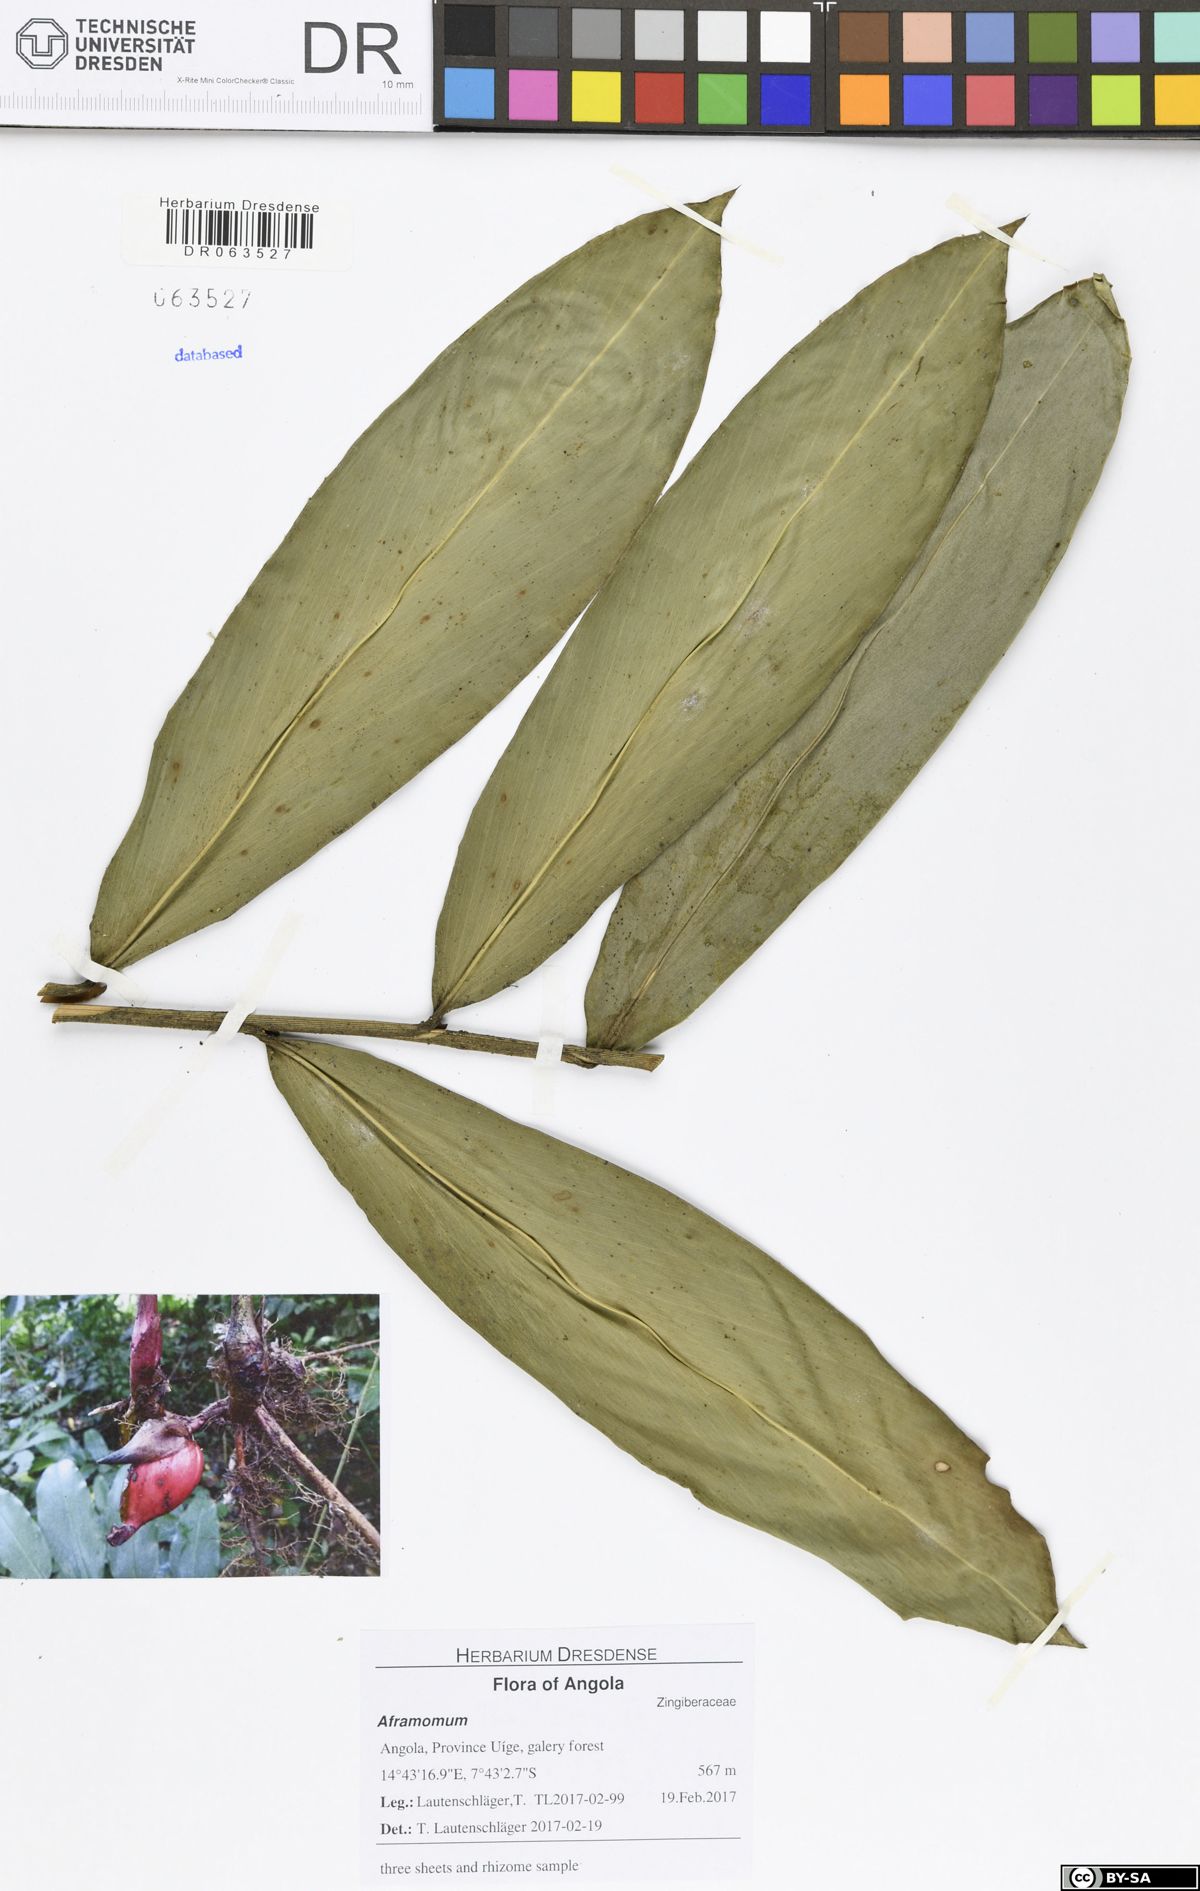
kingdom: Plantae
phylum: Tracheophyta
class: Liliopsida
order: Zingiberales
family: Zingiberaceae
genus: Aframomum
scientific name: Aframomum parvulum
